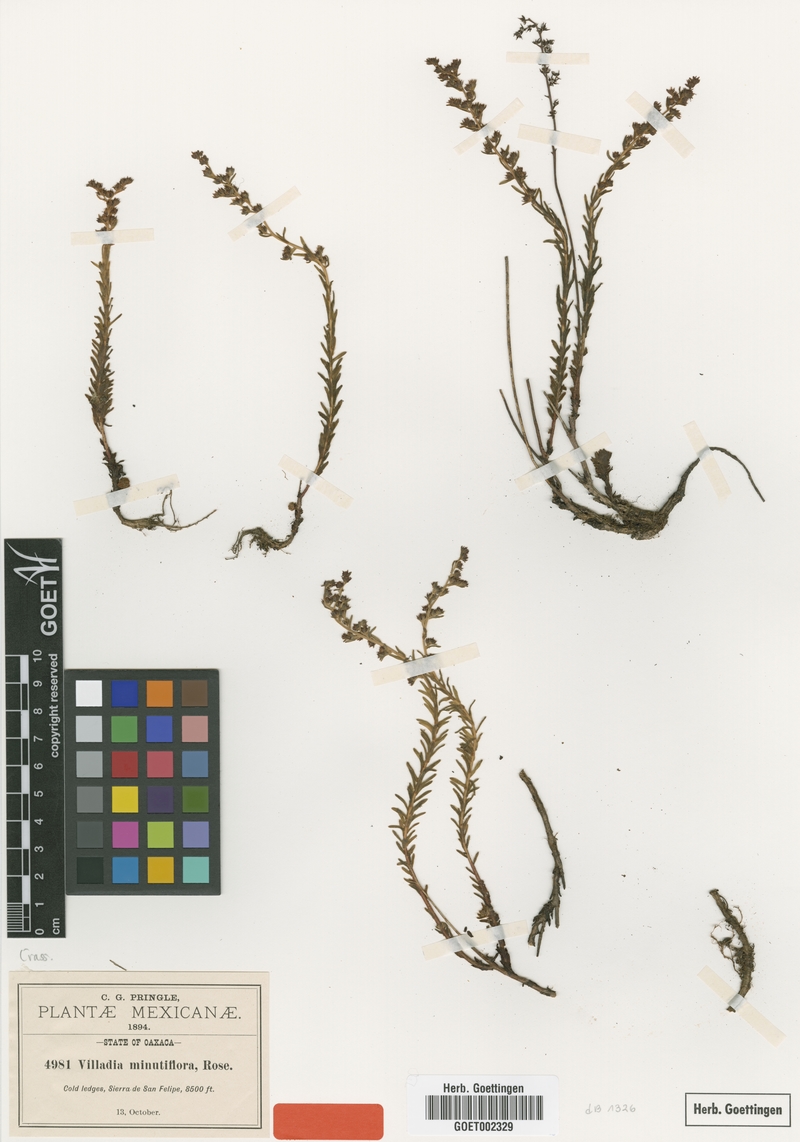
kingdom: Plantae
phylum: Tracheophyta
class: Magnoliopsida
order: Saxifragales
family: Crassulaceae
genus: Villadia
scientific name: Villadia minutiflora
